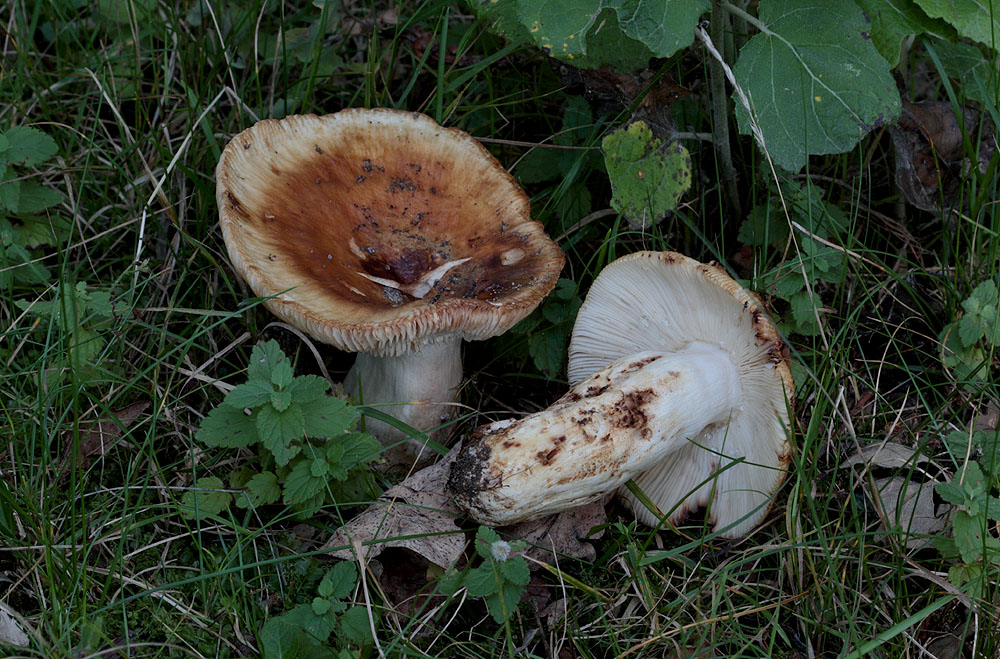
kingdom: Fungi
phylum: Basidiomycota
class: Agaricomycetes
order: Russulales
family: Russulaceae
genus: Russula
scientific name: Russula foetens
